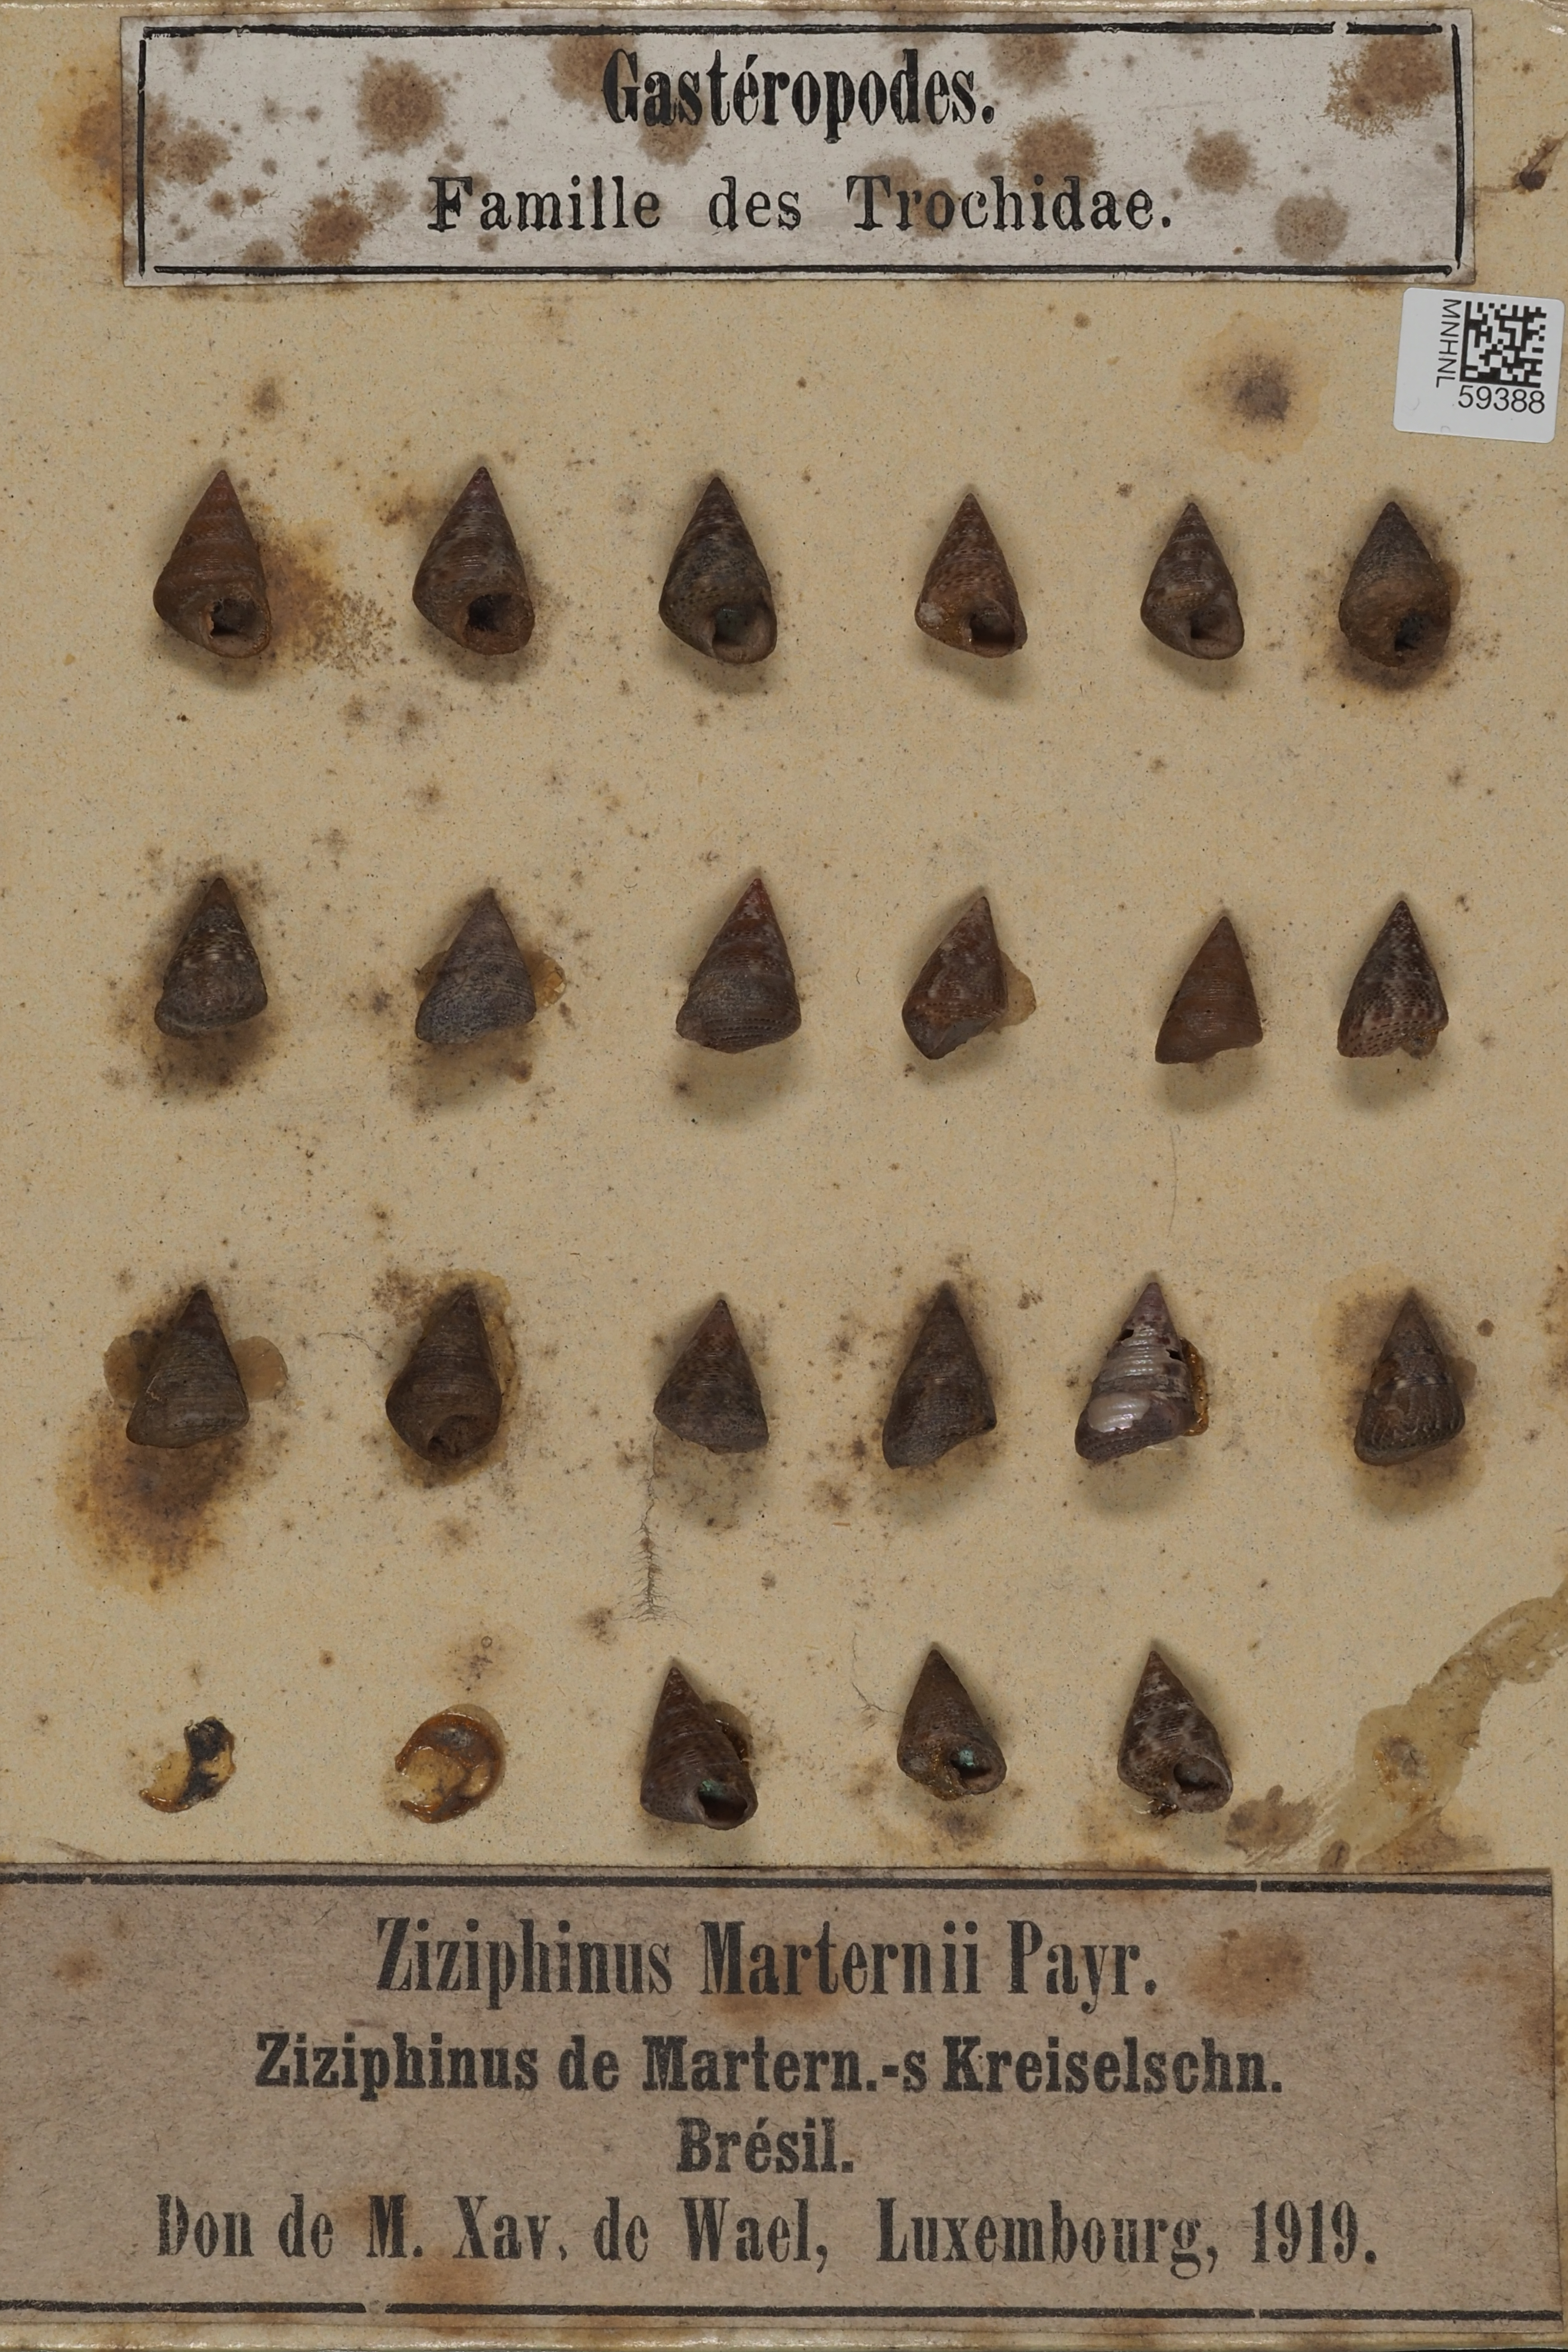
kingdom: Animalia
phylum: Mollusca
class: Gastropoda
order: Trochida
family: Calliostomatidae
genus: Calliostoma
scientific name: Calliostoma
